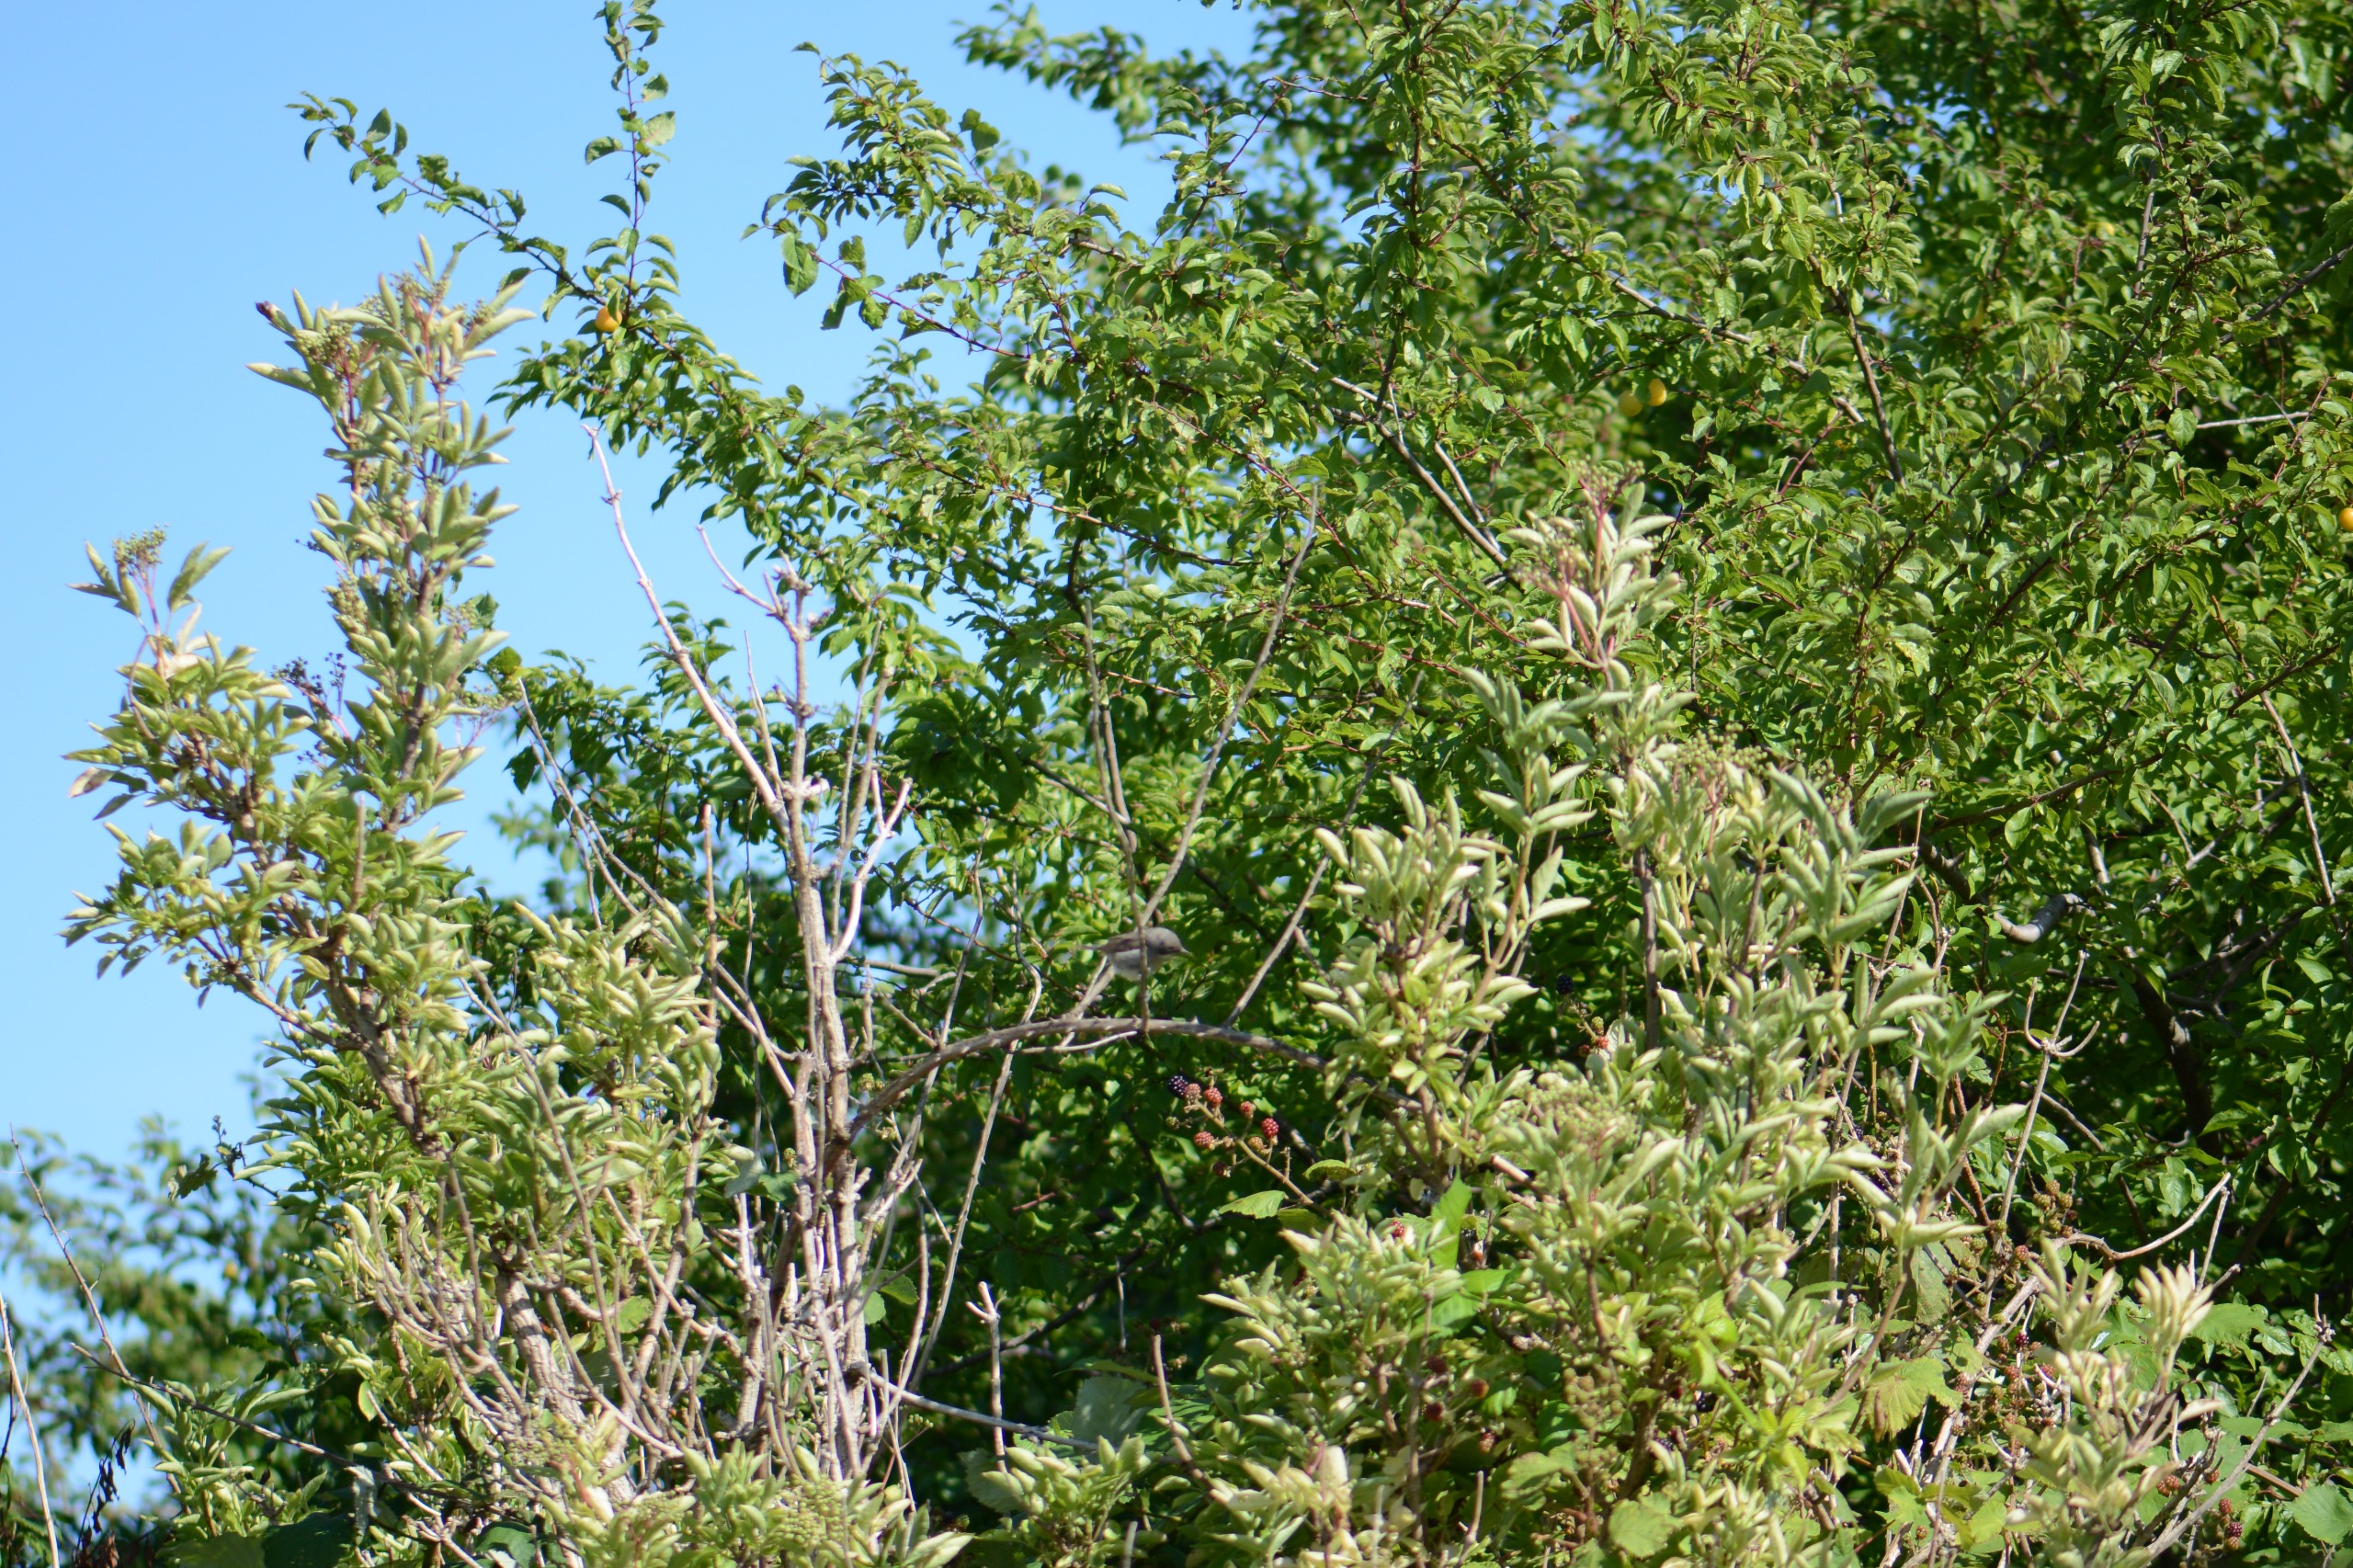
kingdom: Animalia
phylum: Chordata
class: Aves
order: Passeriformes
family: Sylviidae
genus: Sylvia
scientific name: Sylvia curruca
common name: Gærdesanger
